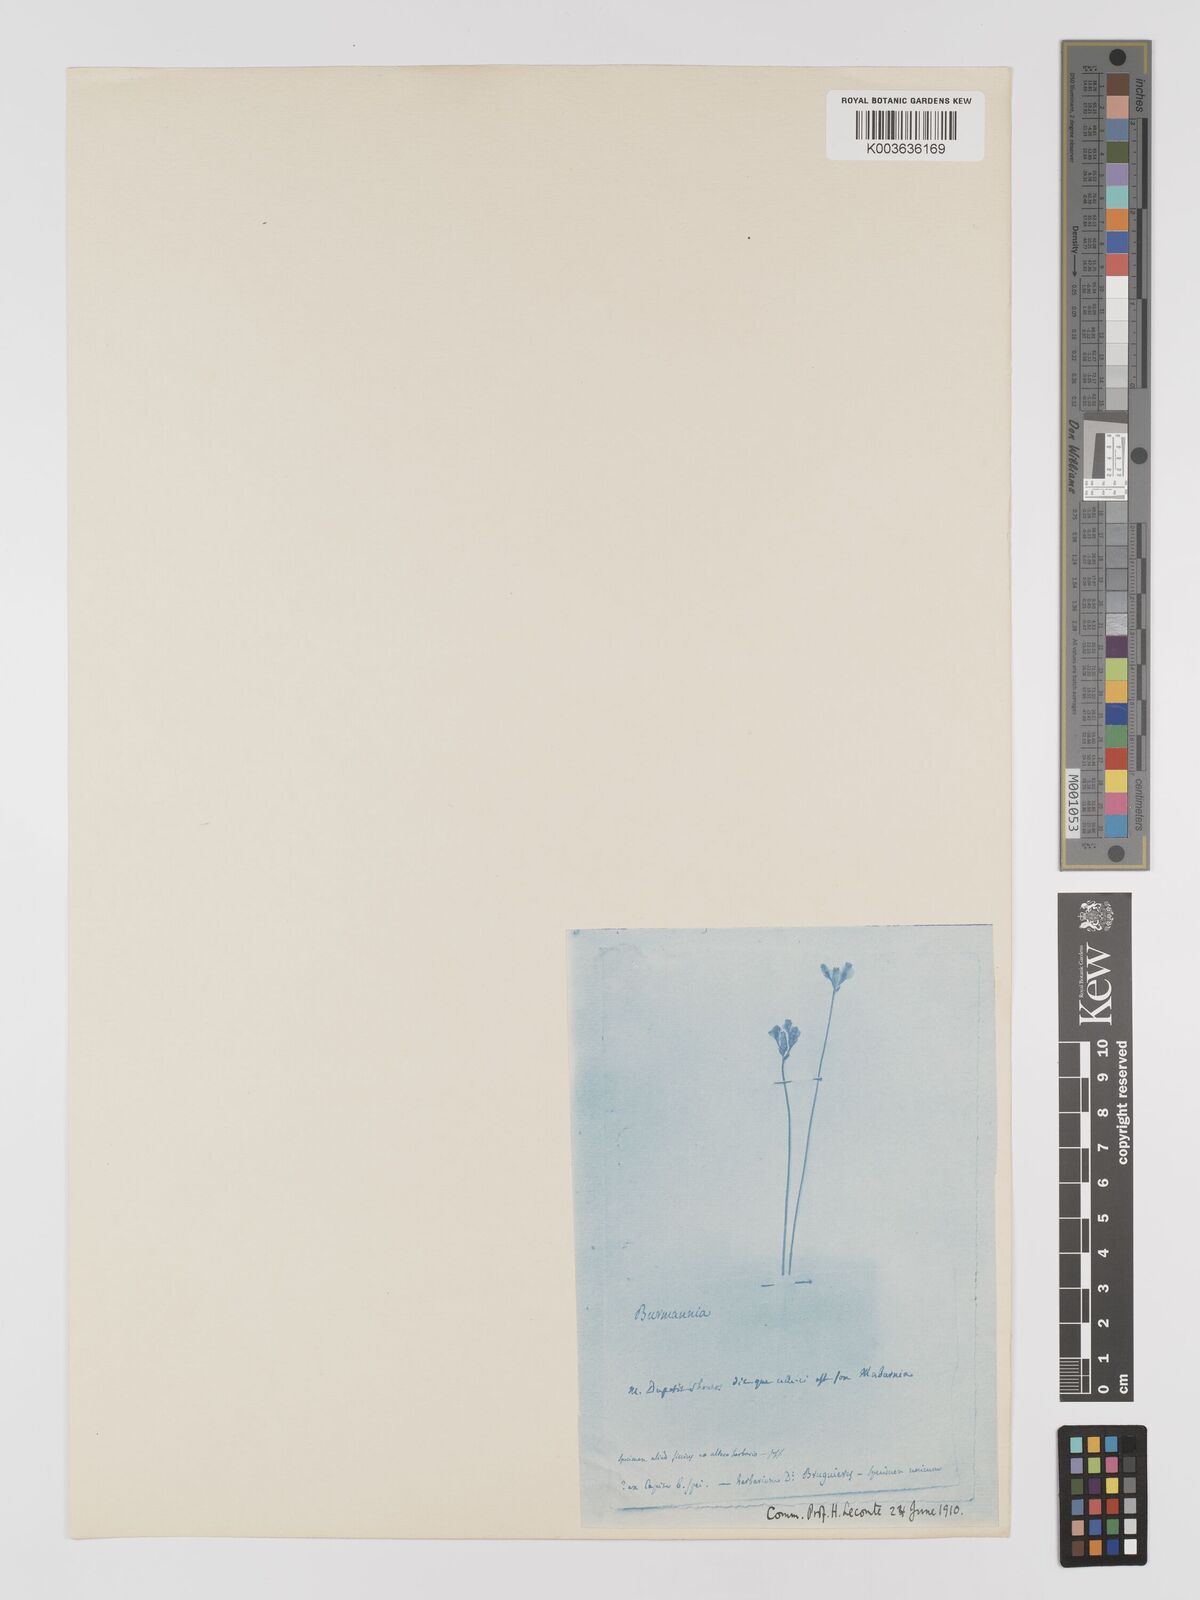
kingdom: Plantae
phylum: Tracheophyta
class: Liliopsida
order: Dioscoreales
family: Burmanniaceae
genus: Burmannia
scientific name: Burmannia madagascariensis
